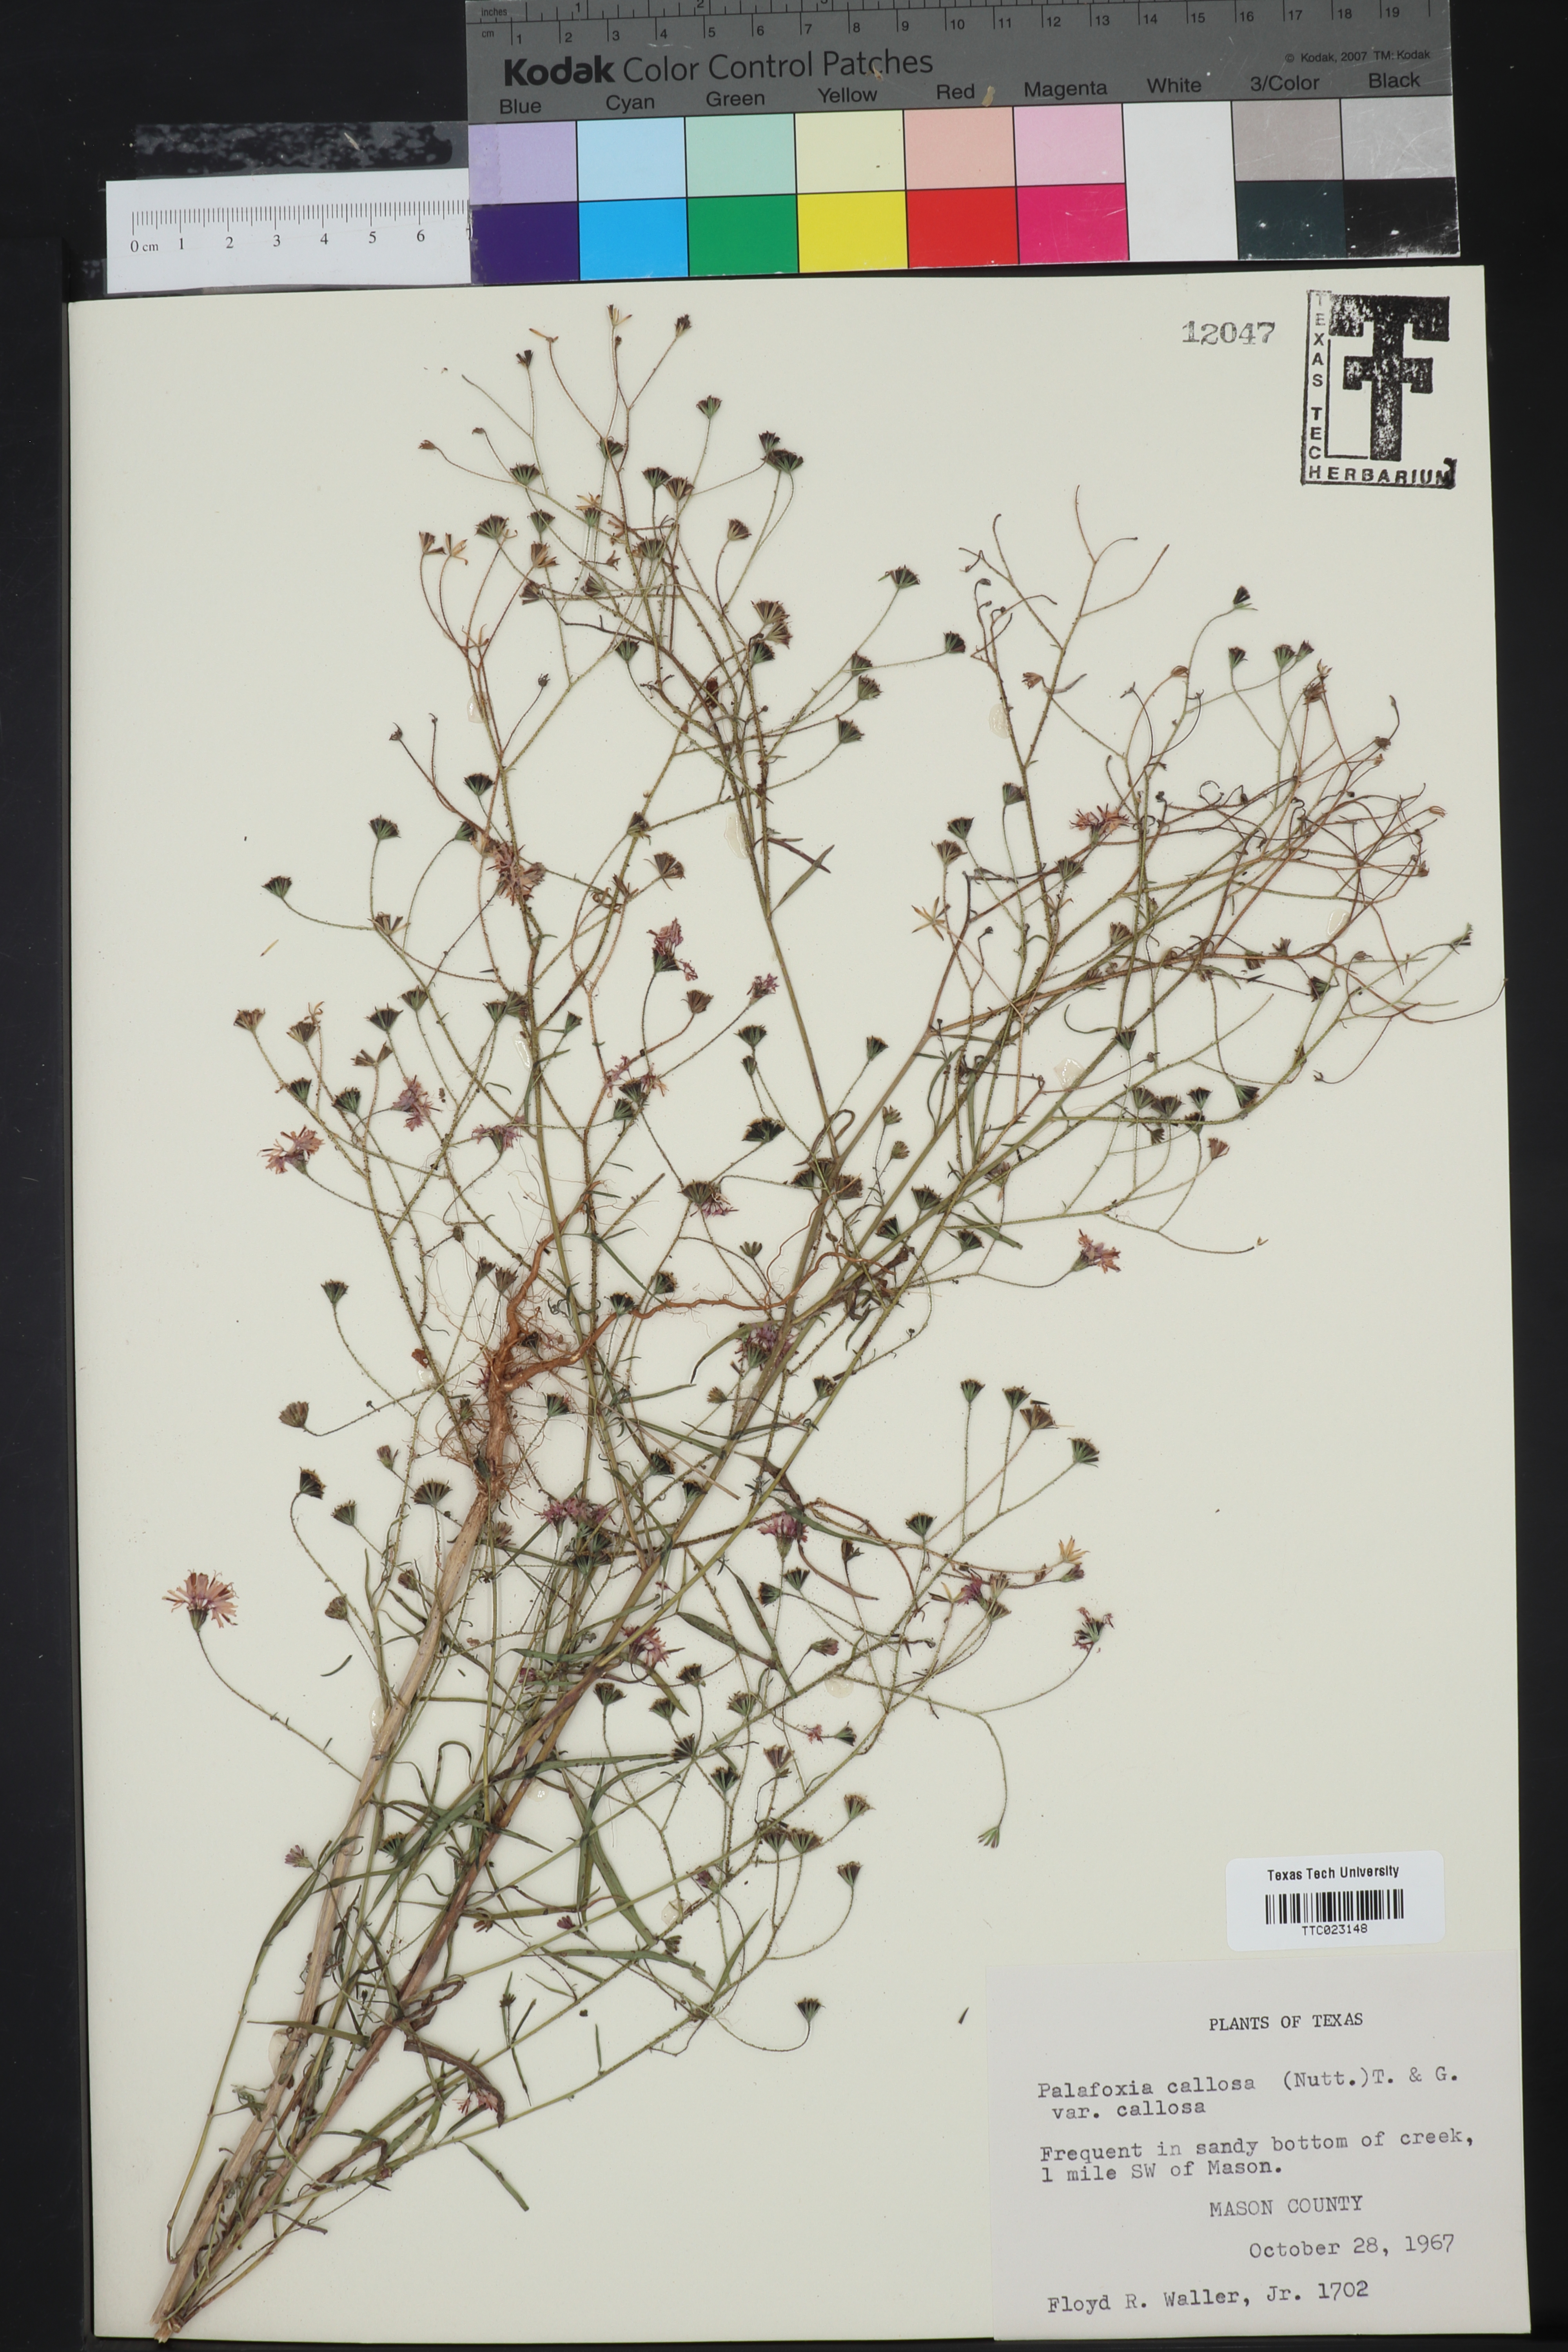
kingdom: Plantae
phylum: Tracheophyta
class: Magnoliopsida
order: Asterales
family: Asteraceae
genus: Palafoxia
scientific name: Palafoxia callosa
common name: Small palafox
